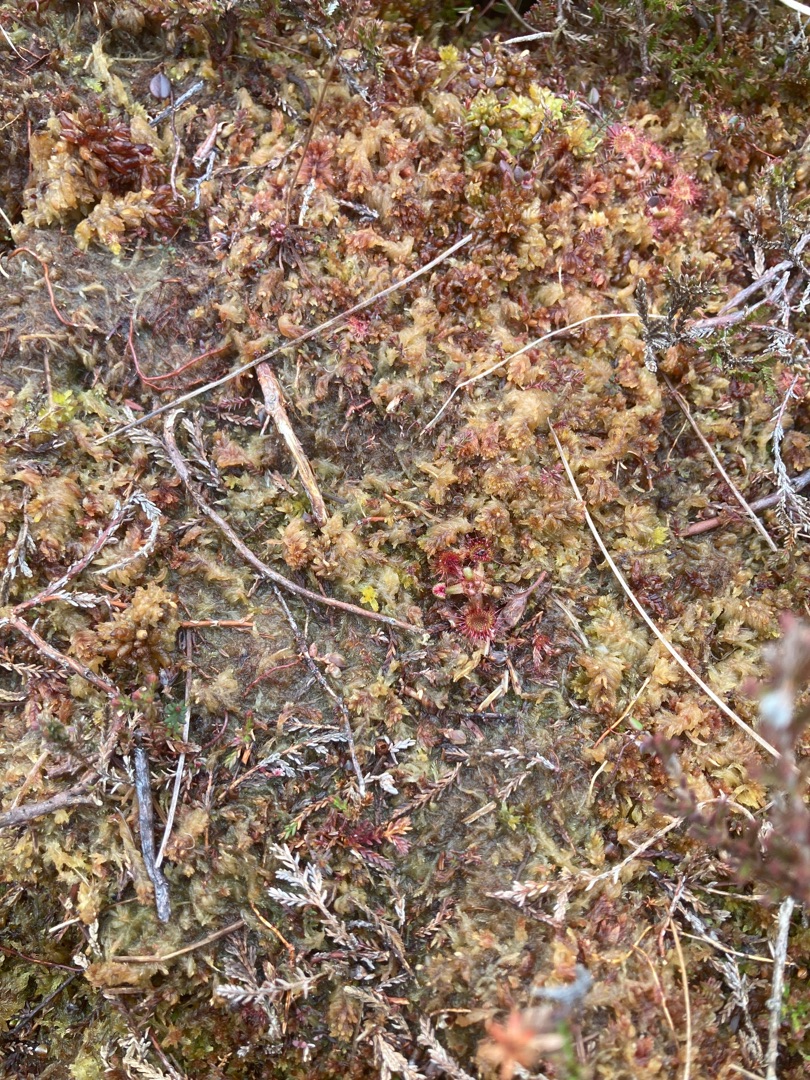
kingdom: Plantae
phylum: Tracheophyta
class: Magnoliopsida
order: Caryophyllales
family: Droseraceae
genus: Drosera
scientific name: Drosera rotundifolia
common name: Rundbladet soldug
